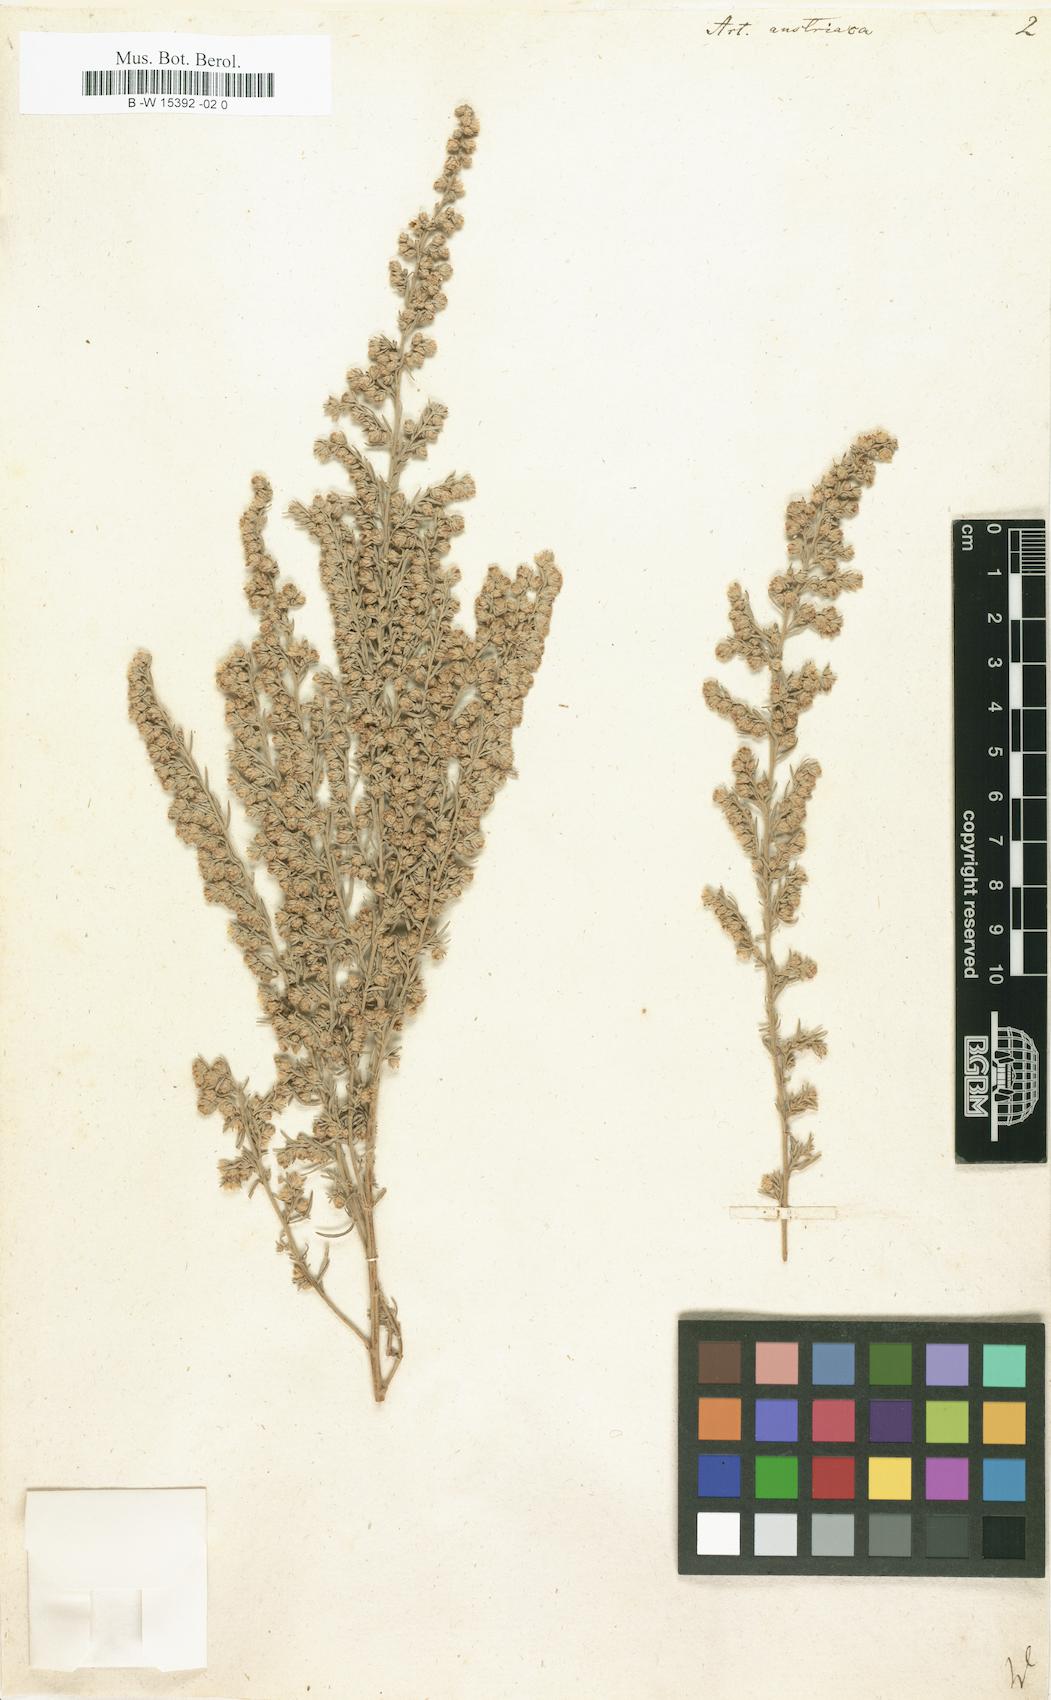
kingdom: Plantae
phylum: Tracheophyta
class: Magnoliopsida
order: Asterales
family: Asteraceae
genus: Artemisia
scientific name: Artemisia austriaca
